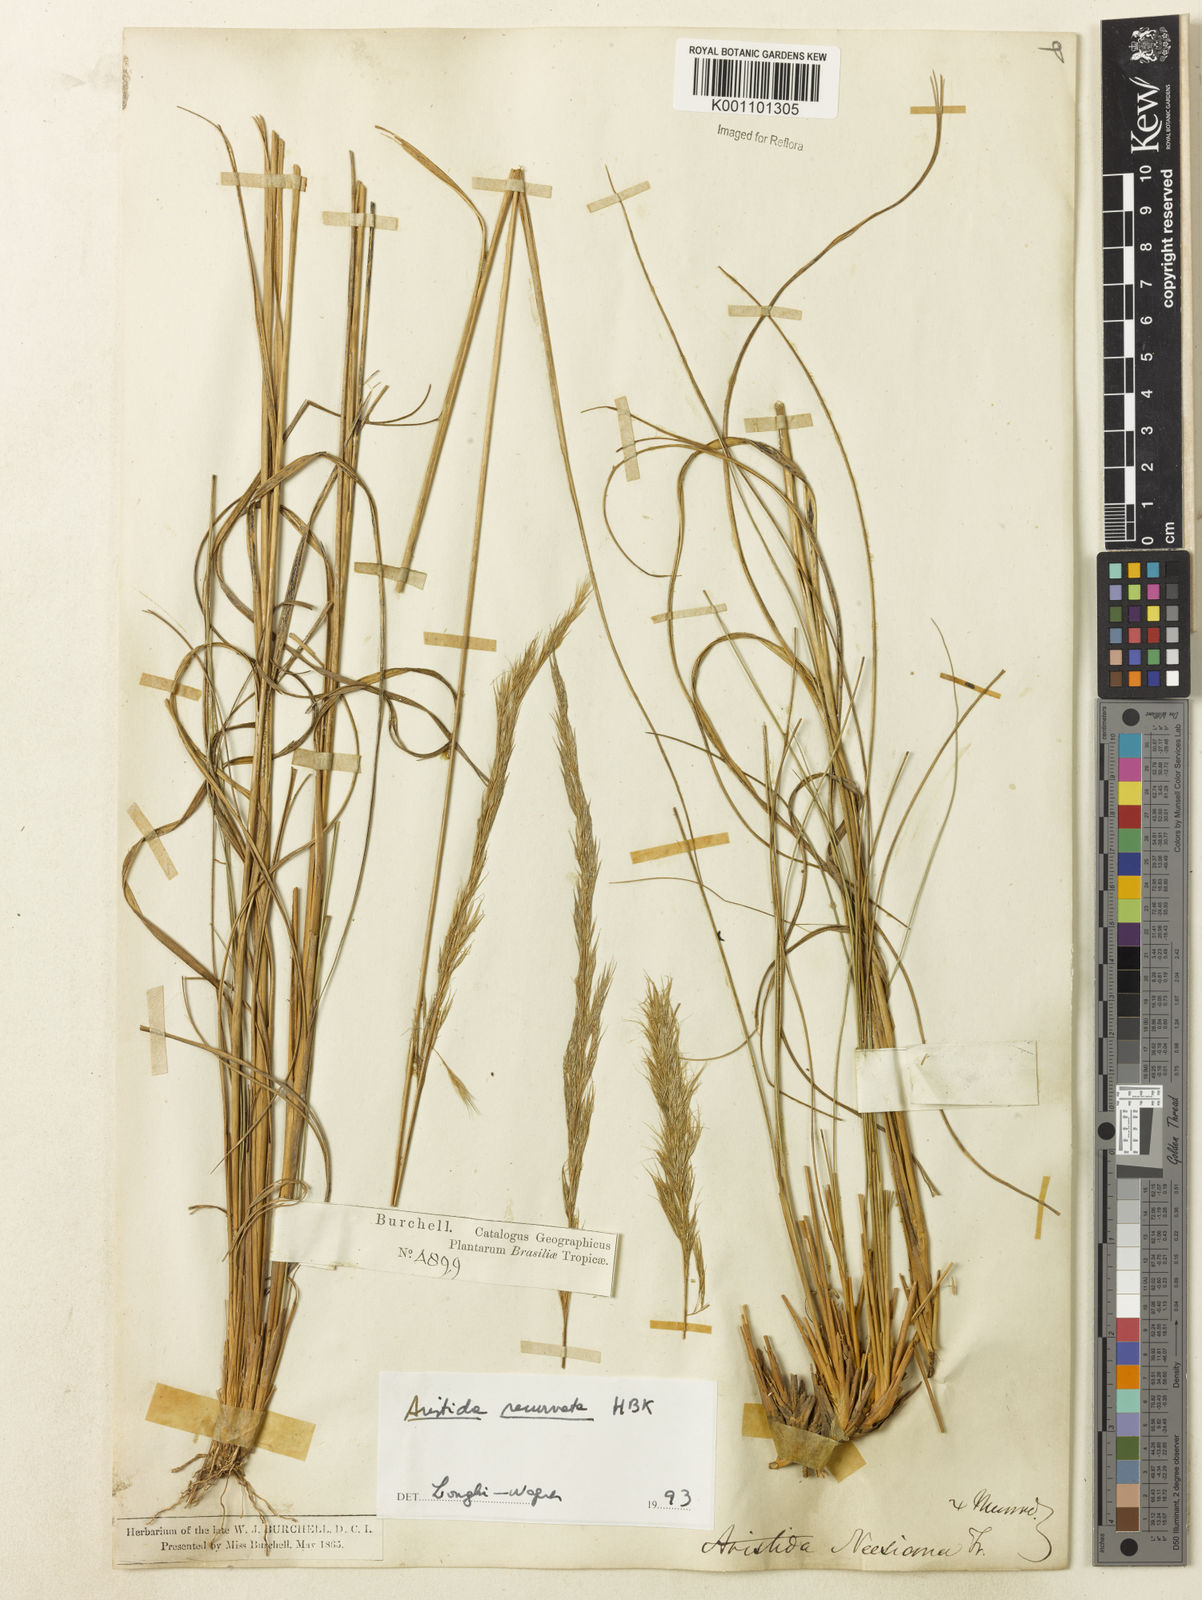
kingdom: Plantae
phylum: Tracheophyta
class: Liliopsida
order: Poales
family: Poaceae
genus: Aristida
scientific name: Aristida recurvata
